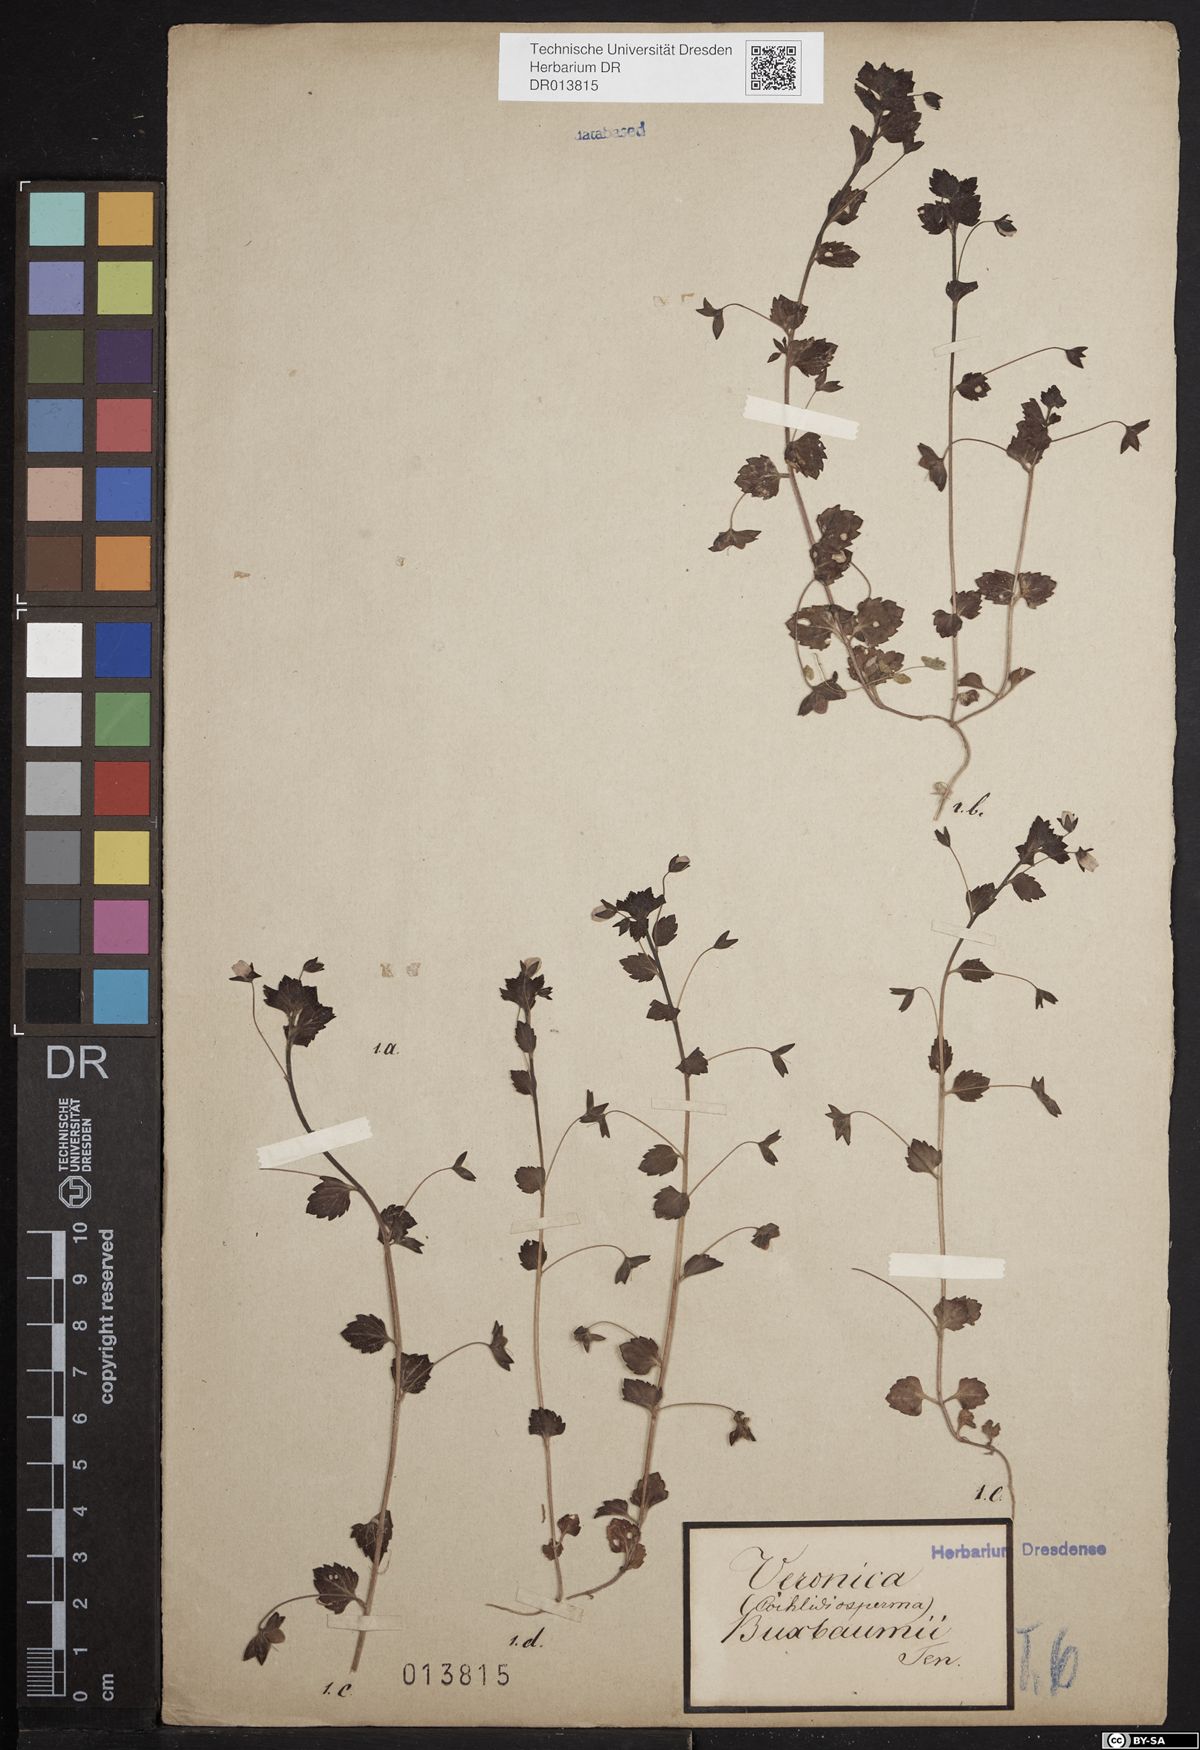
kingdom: Plantae
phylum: Tracheophyta
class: Magnoliopsida
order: Lamiales
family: Plantaginaceae
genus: Veronica
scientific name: Veronica persica
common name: Common field-speedwell
